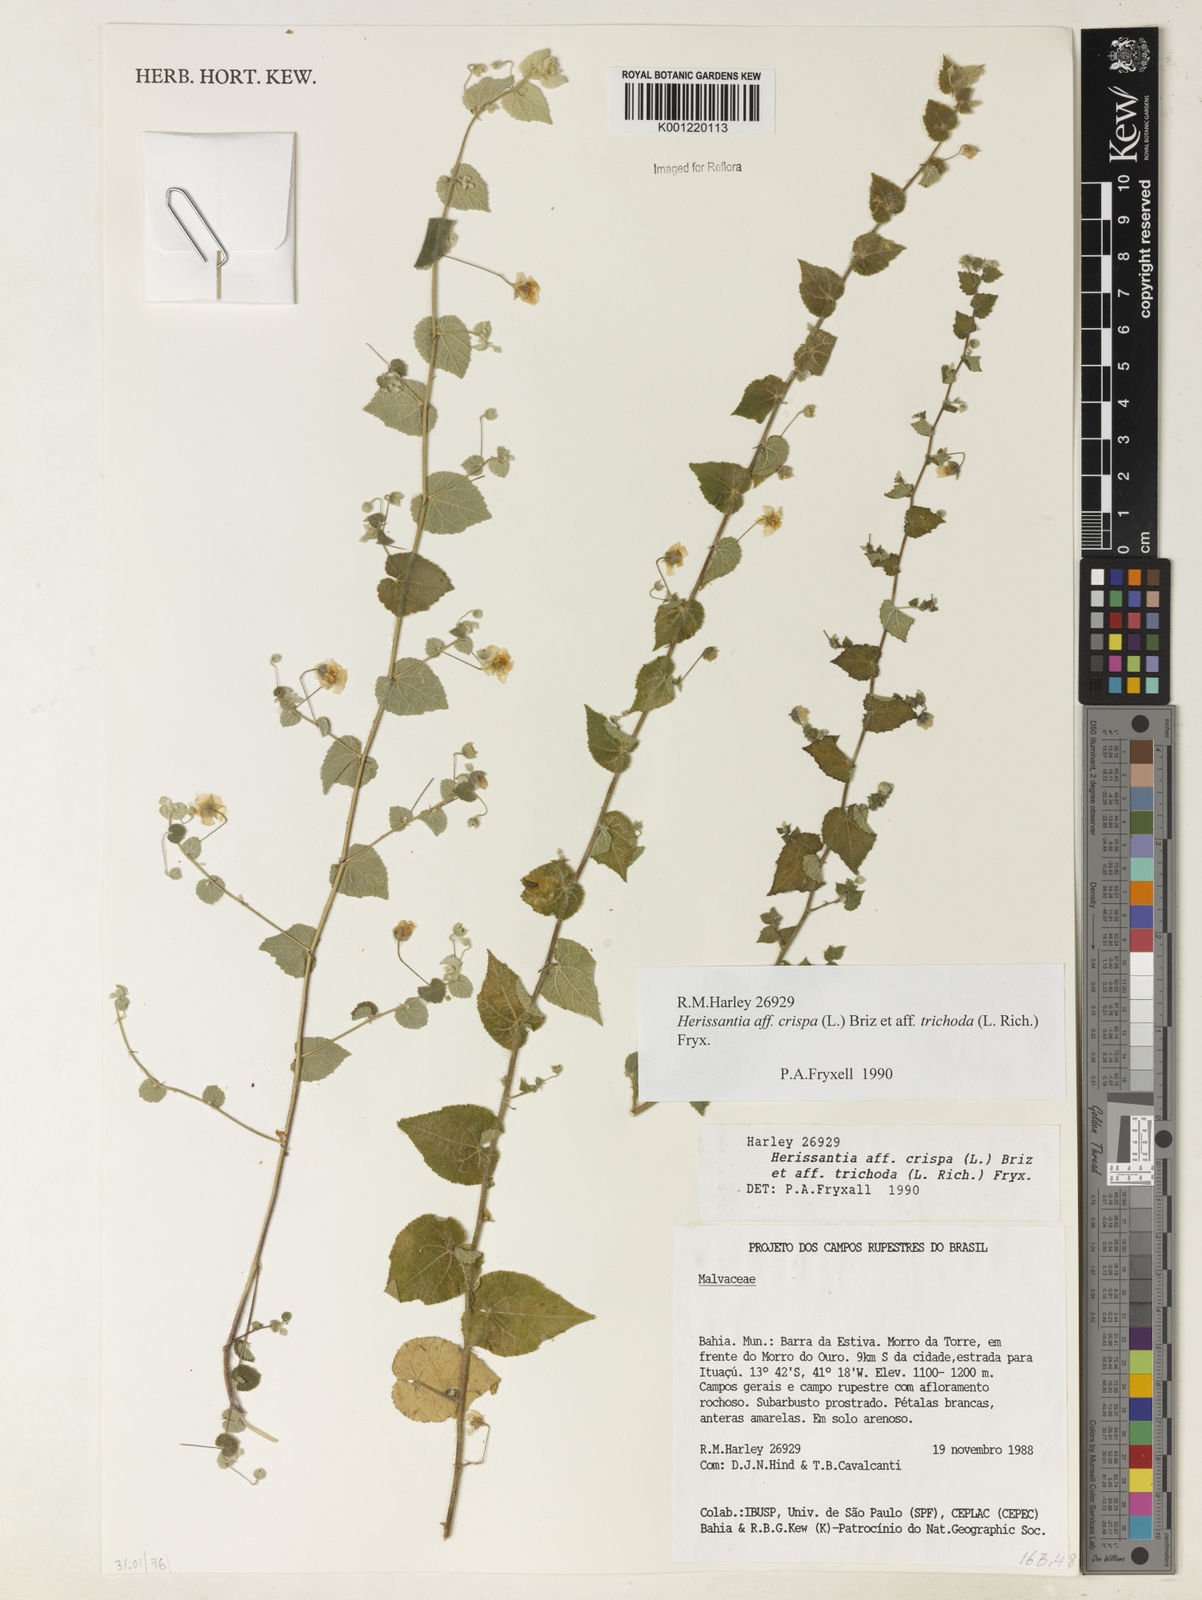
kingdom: Plantae
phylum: Tracheophyta
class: Magnoliopsida
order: Malvales
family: Malvaceae
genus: Herissantia
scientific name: Herissantia crispa
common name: Bladdermallow
